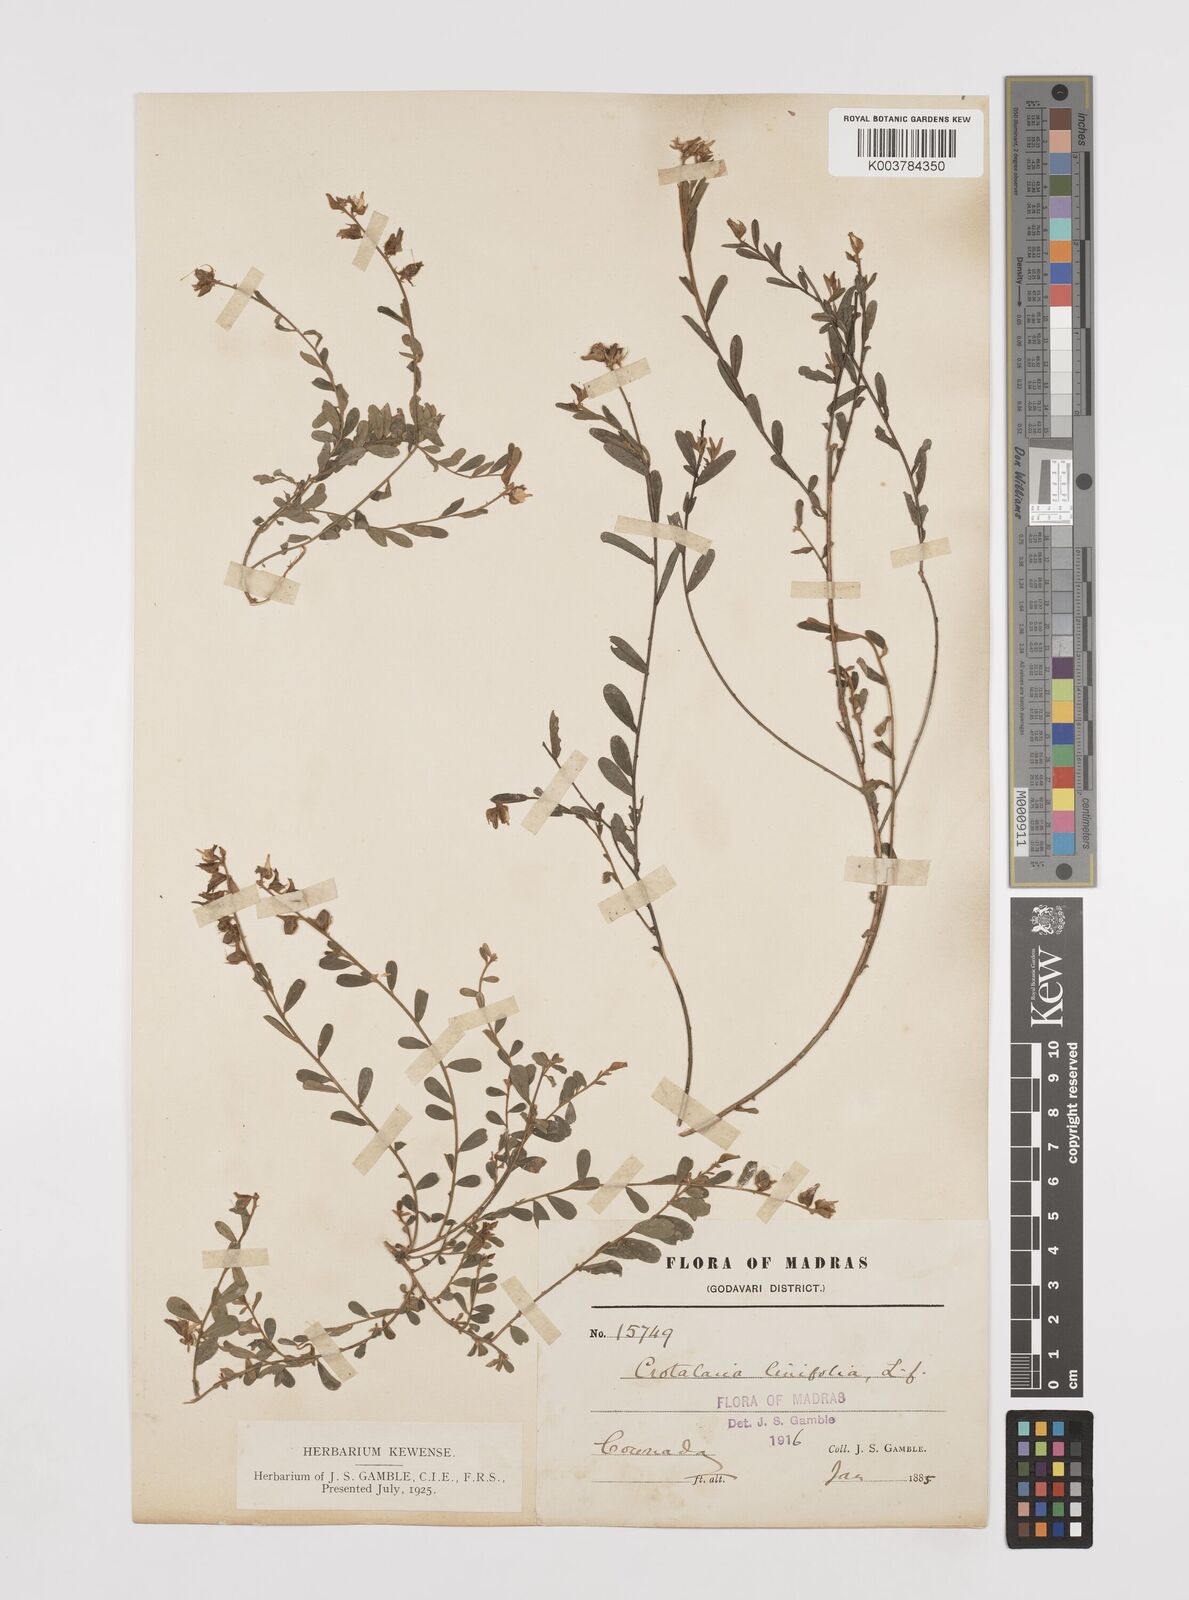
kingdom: Plantae
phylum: Tracheophyta
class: Magnoliopsida
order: Fabales
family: Fabaceae
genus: Crotalaria
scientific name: Crotalaria linifolia
